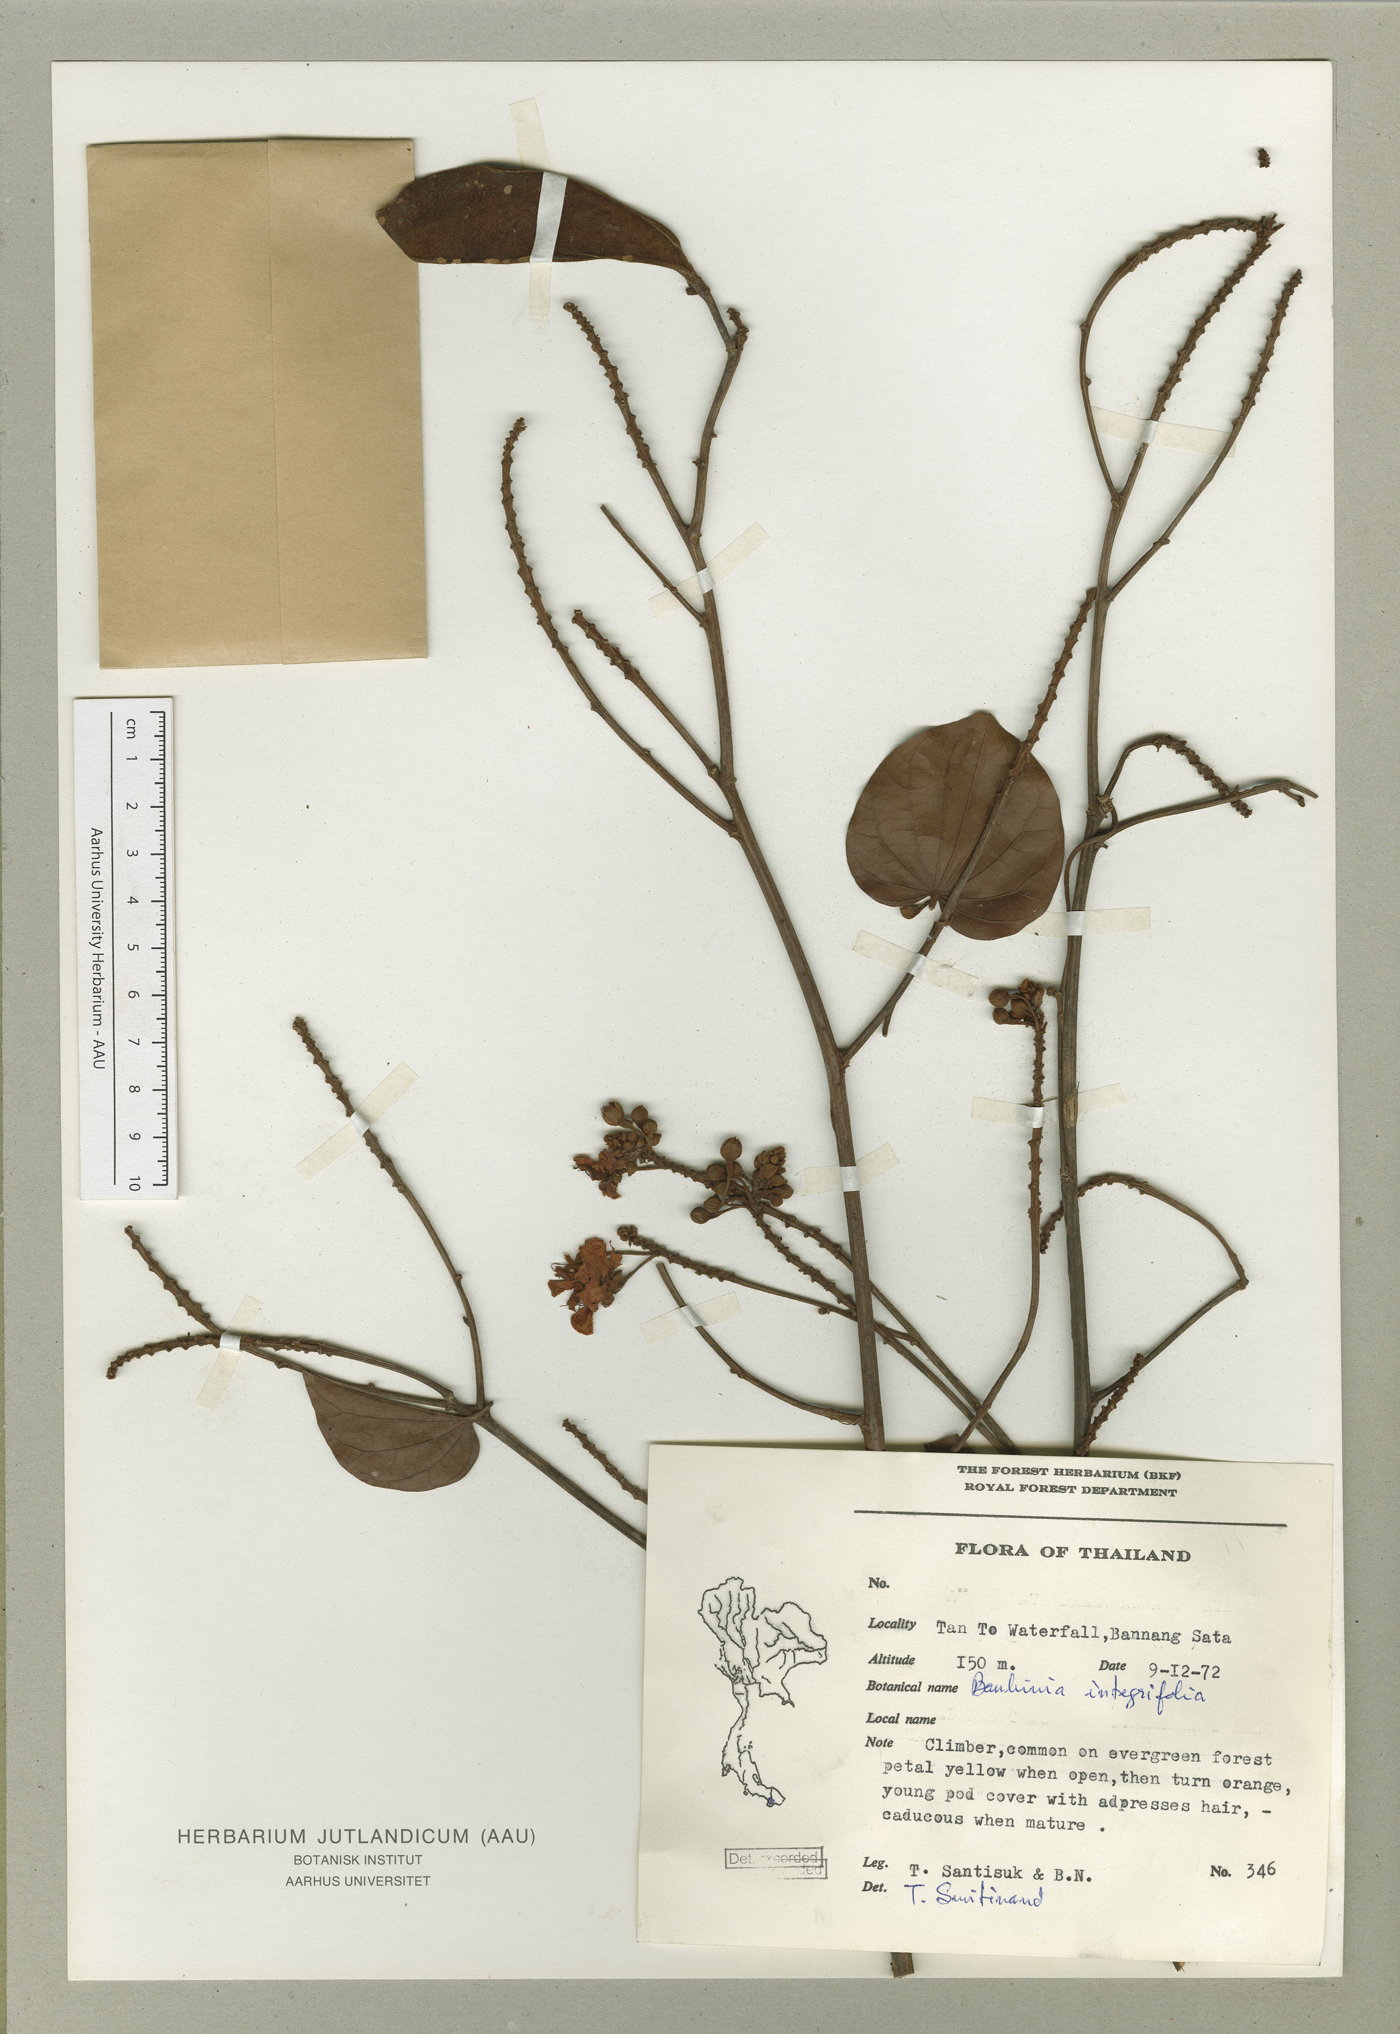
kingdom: Plantae
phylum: Tracheophyta
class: Magnoliopsida
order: Fabales
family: Fabaceae
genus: Phanera
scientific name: Phanera integrifolia
